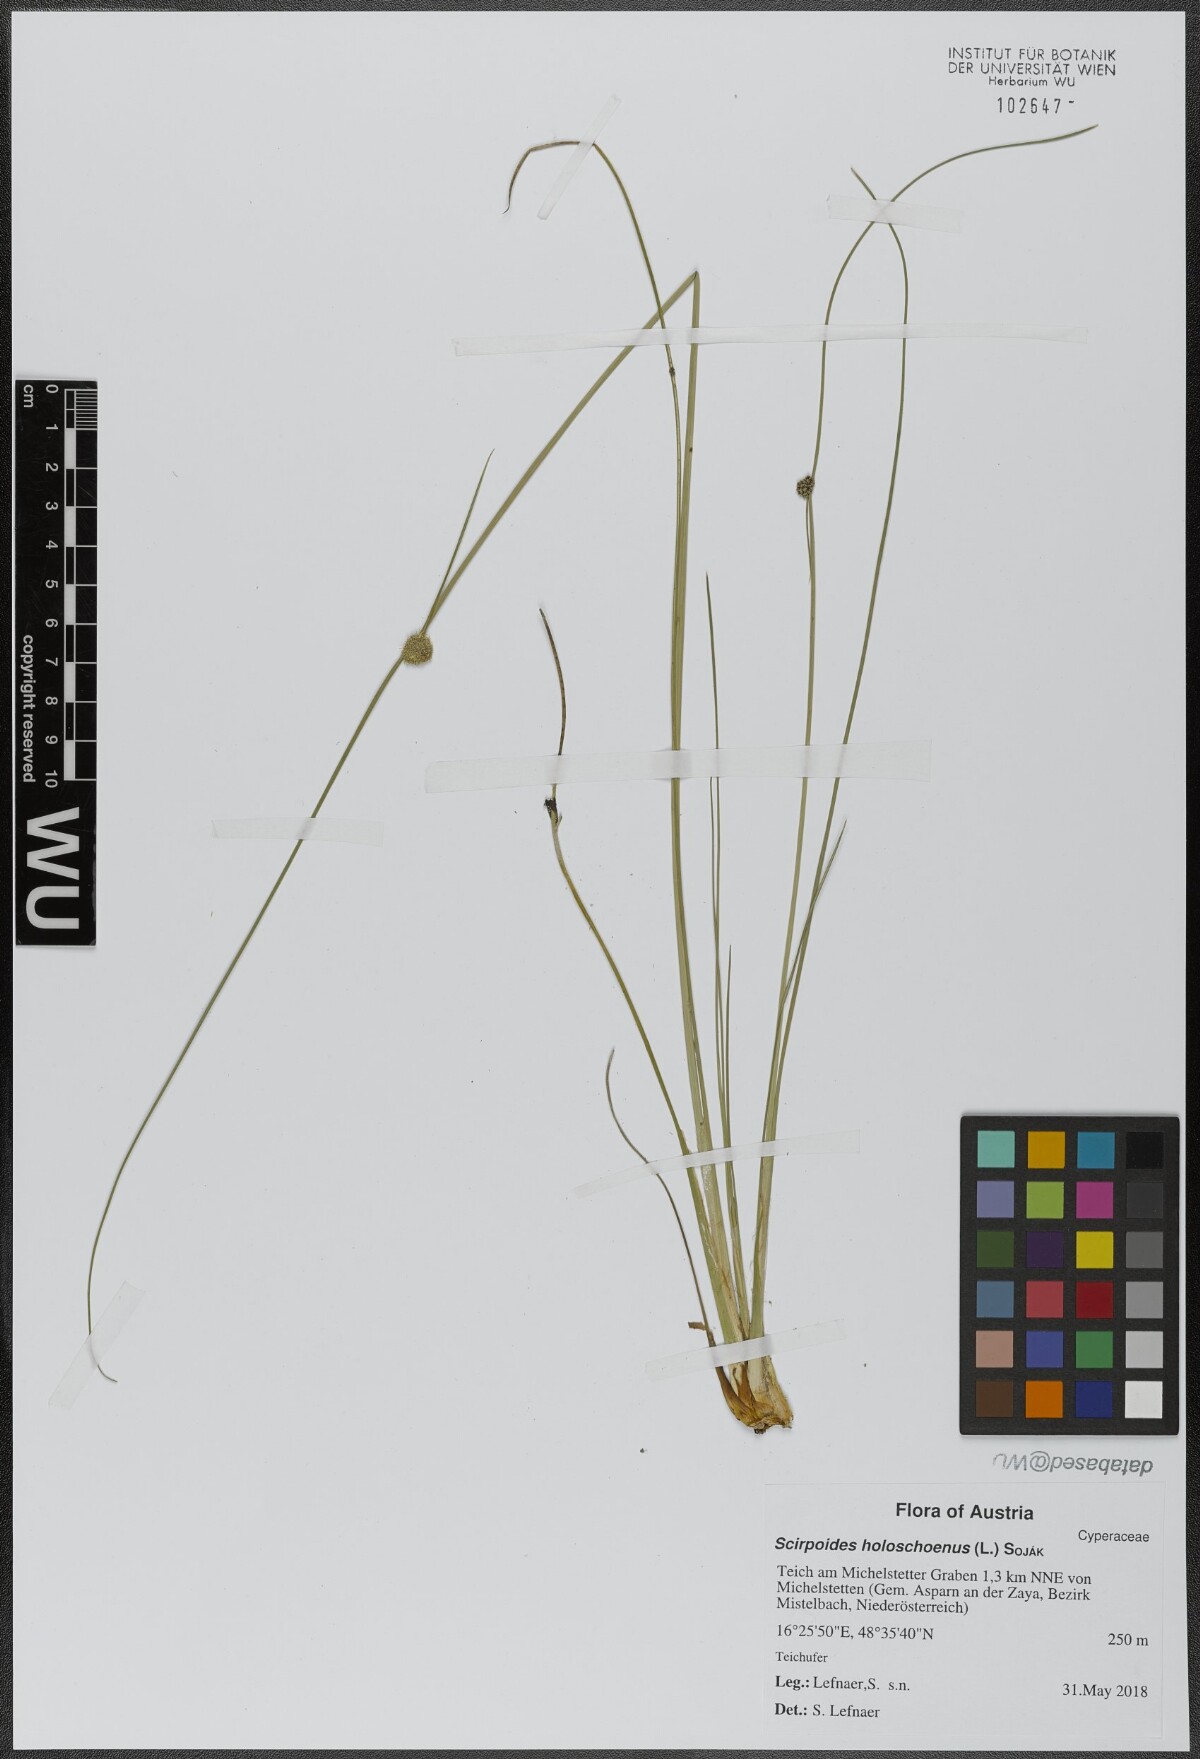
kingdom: Plantae
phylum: Tracheophyta
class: Liliopsida
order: Poales
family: Cyperaceae
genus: Scirpoides
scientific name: Scirpoides holoschoenus
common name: Round-headed club-rush
